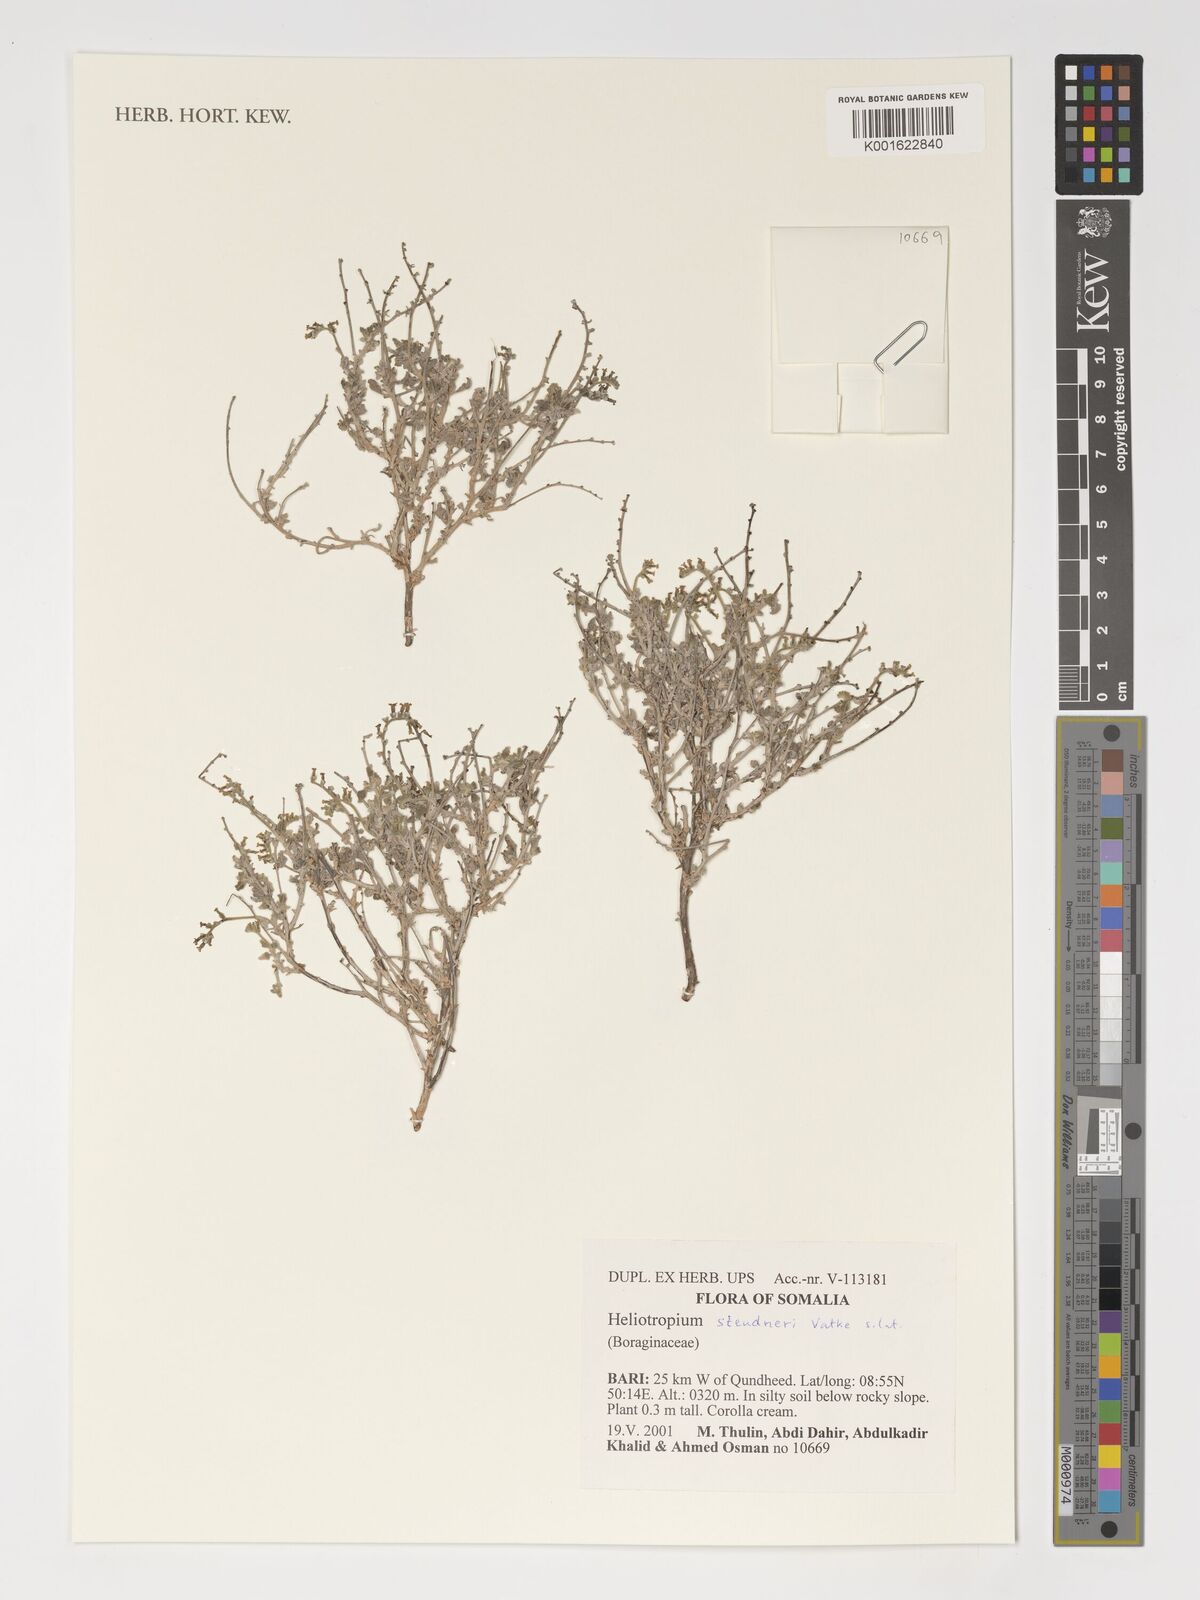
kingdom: Plantae
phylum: Tracheophyta
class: Magnoliopsida
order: Boraginales
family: Heliotropiaceae
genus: Heliotropium
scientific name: Heliotropium steudneri
